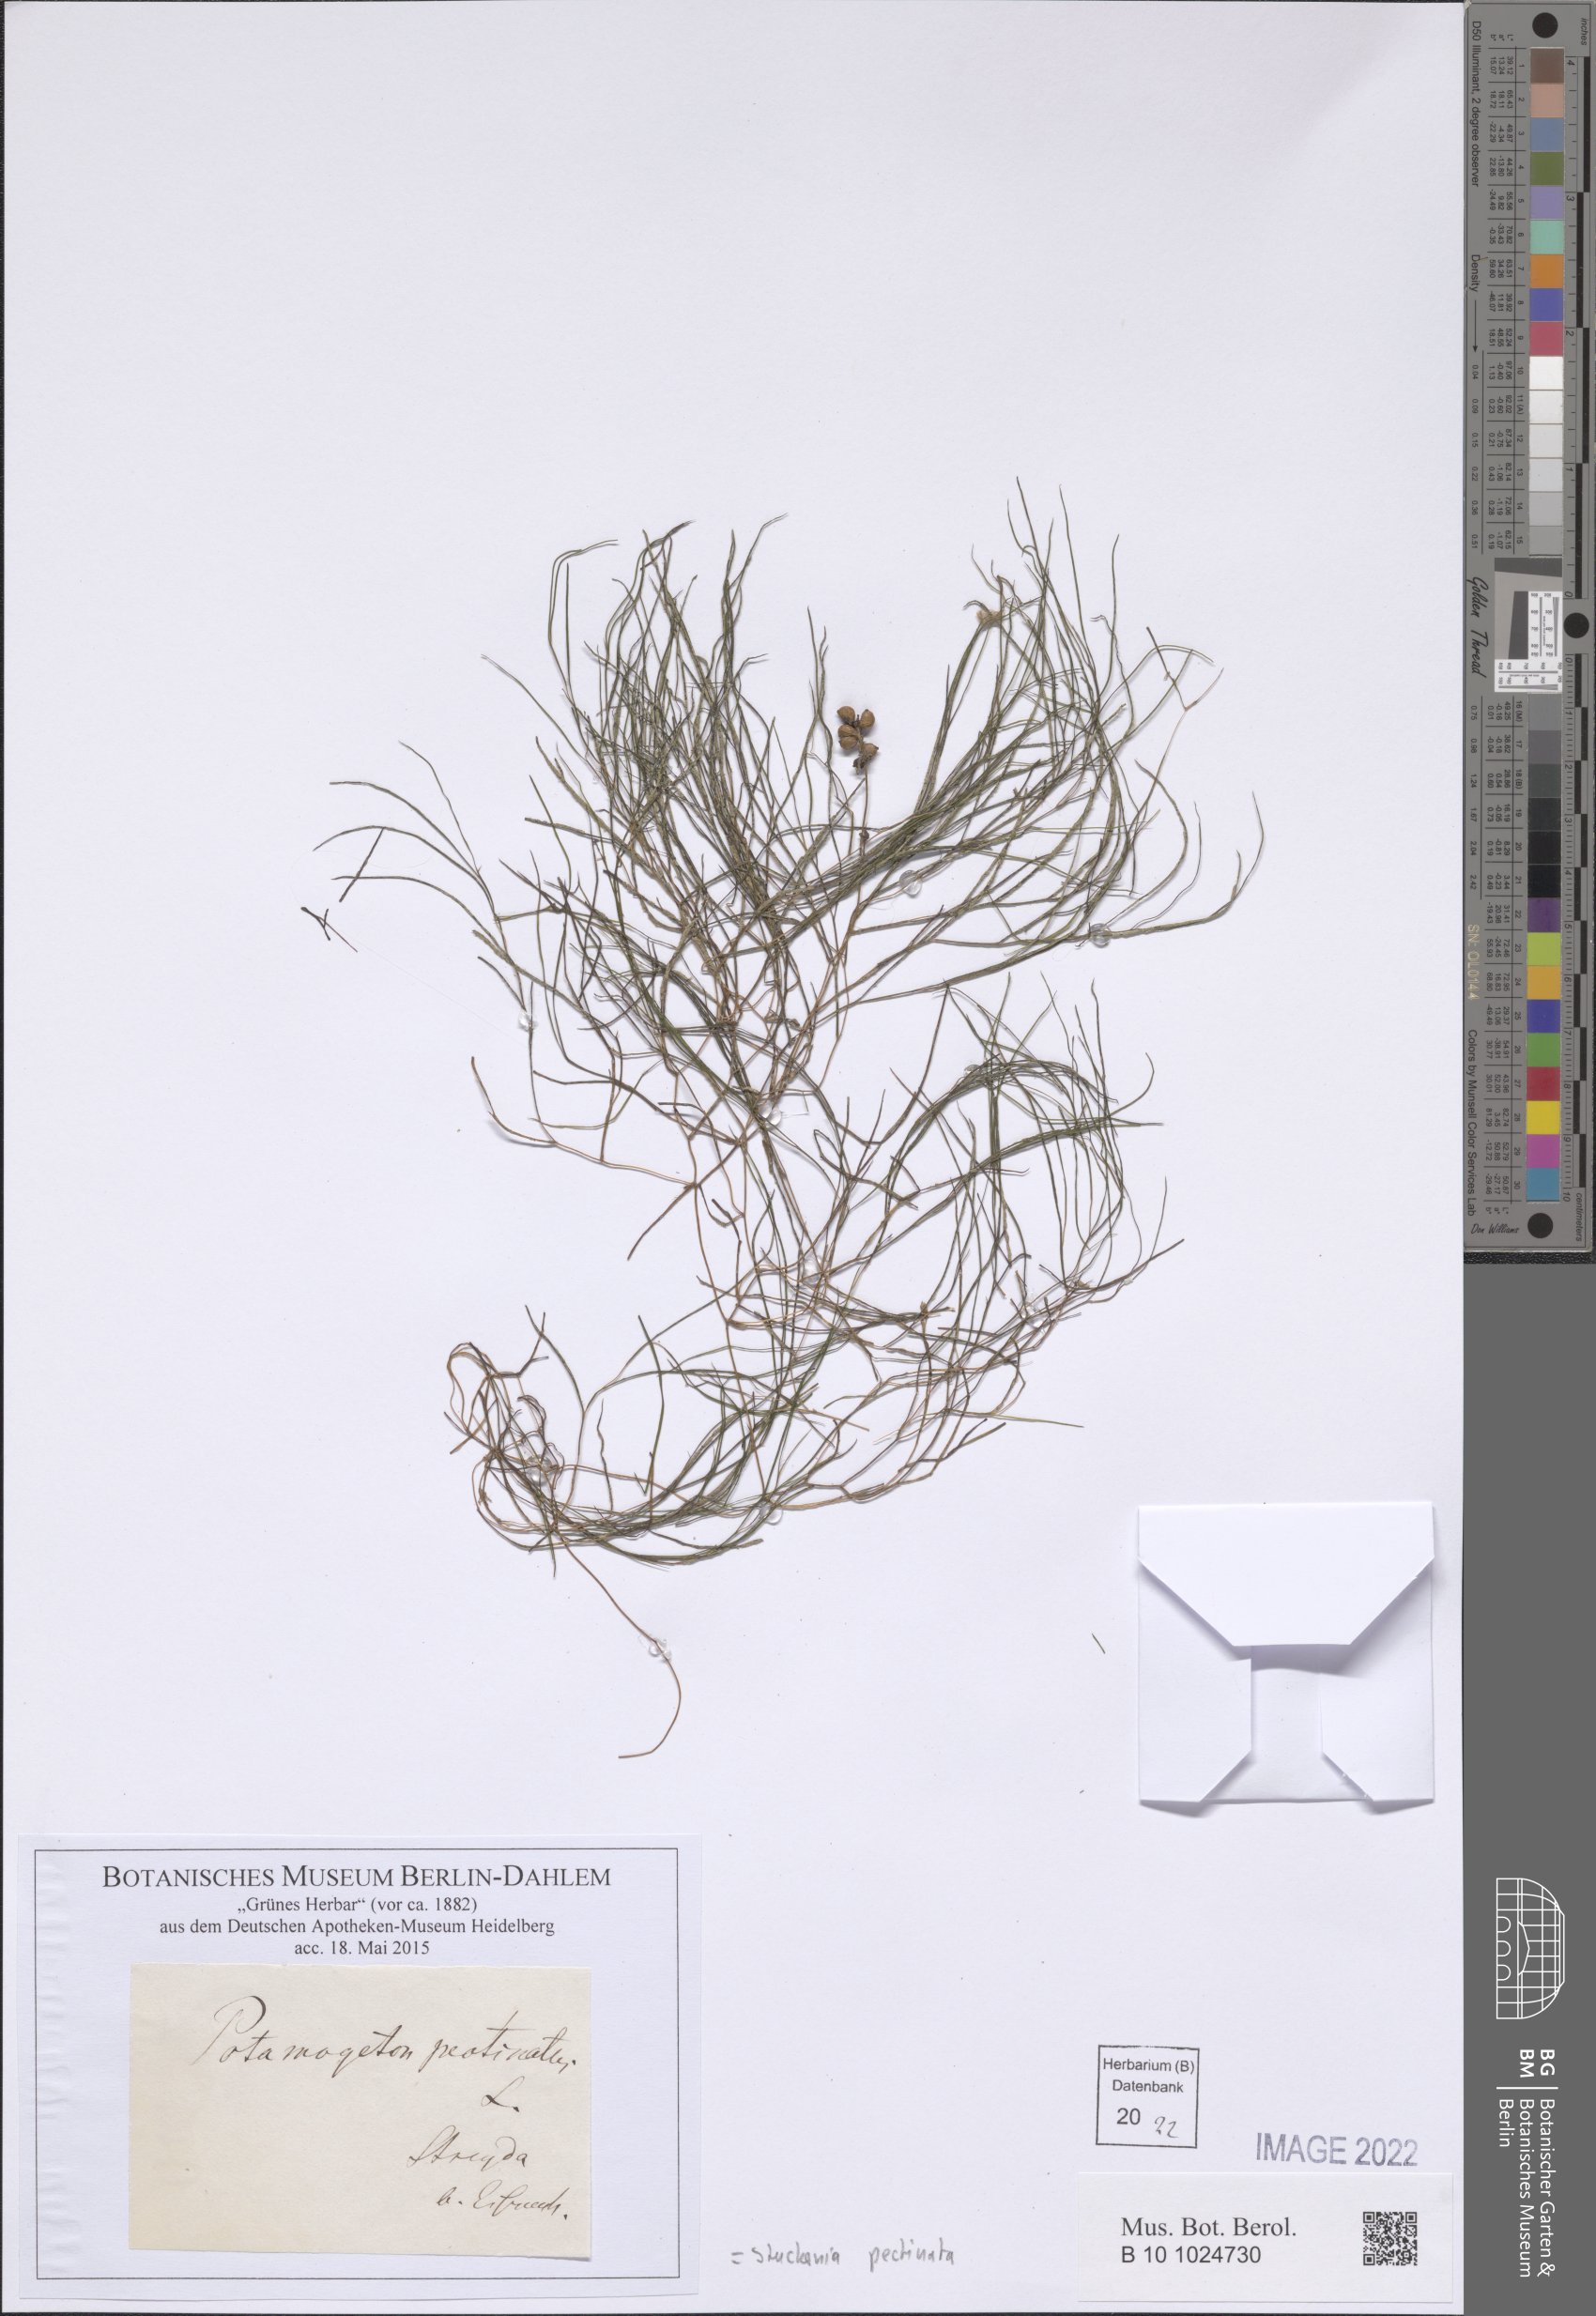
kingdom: Plantae
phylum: Tracheophyta
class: Liliopsida
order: Alismatales
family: Potamogetonaceae
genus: Stuckenia
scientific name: Stuckenia pectinata
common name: Sago pondweed
